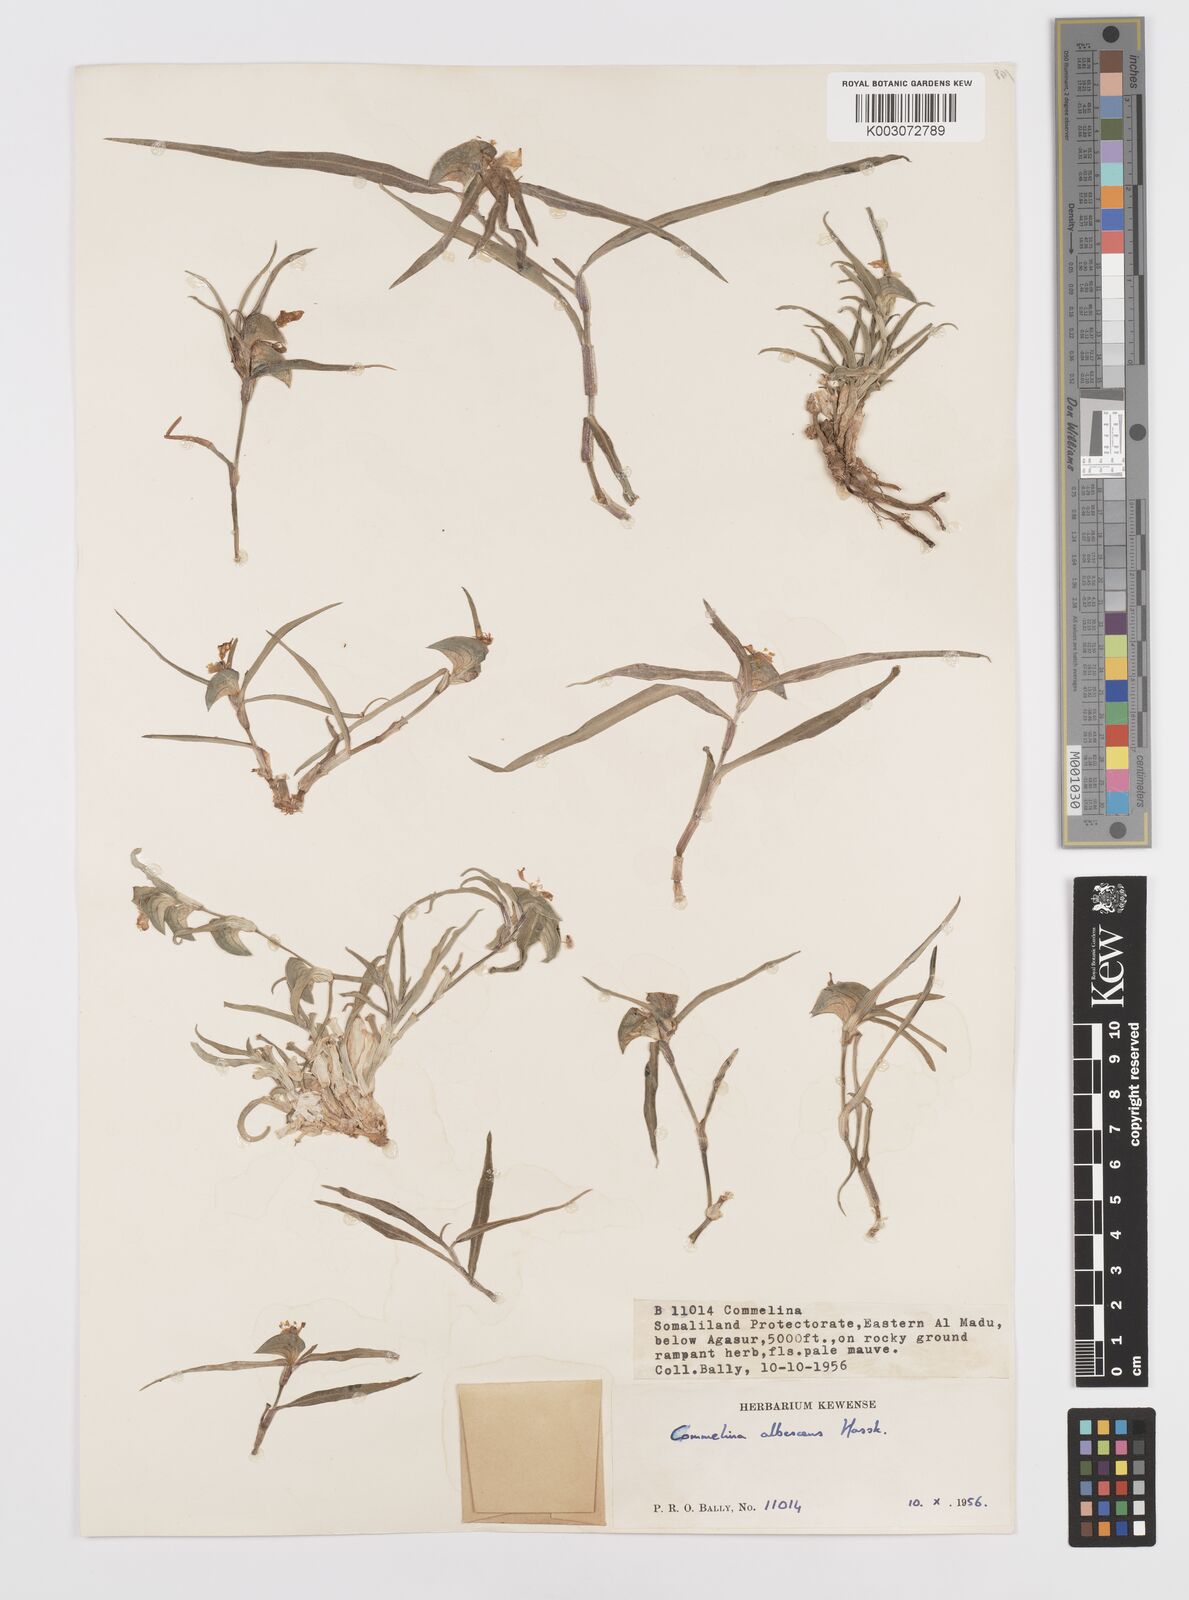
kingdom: Plantae
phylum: Tracheophyta
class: Liliopsida
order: Commelinales
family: Commelinaceae
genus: Commelina
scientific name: Commelina albescens
